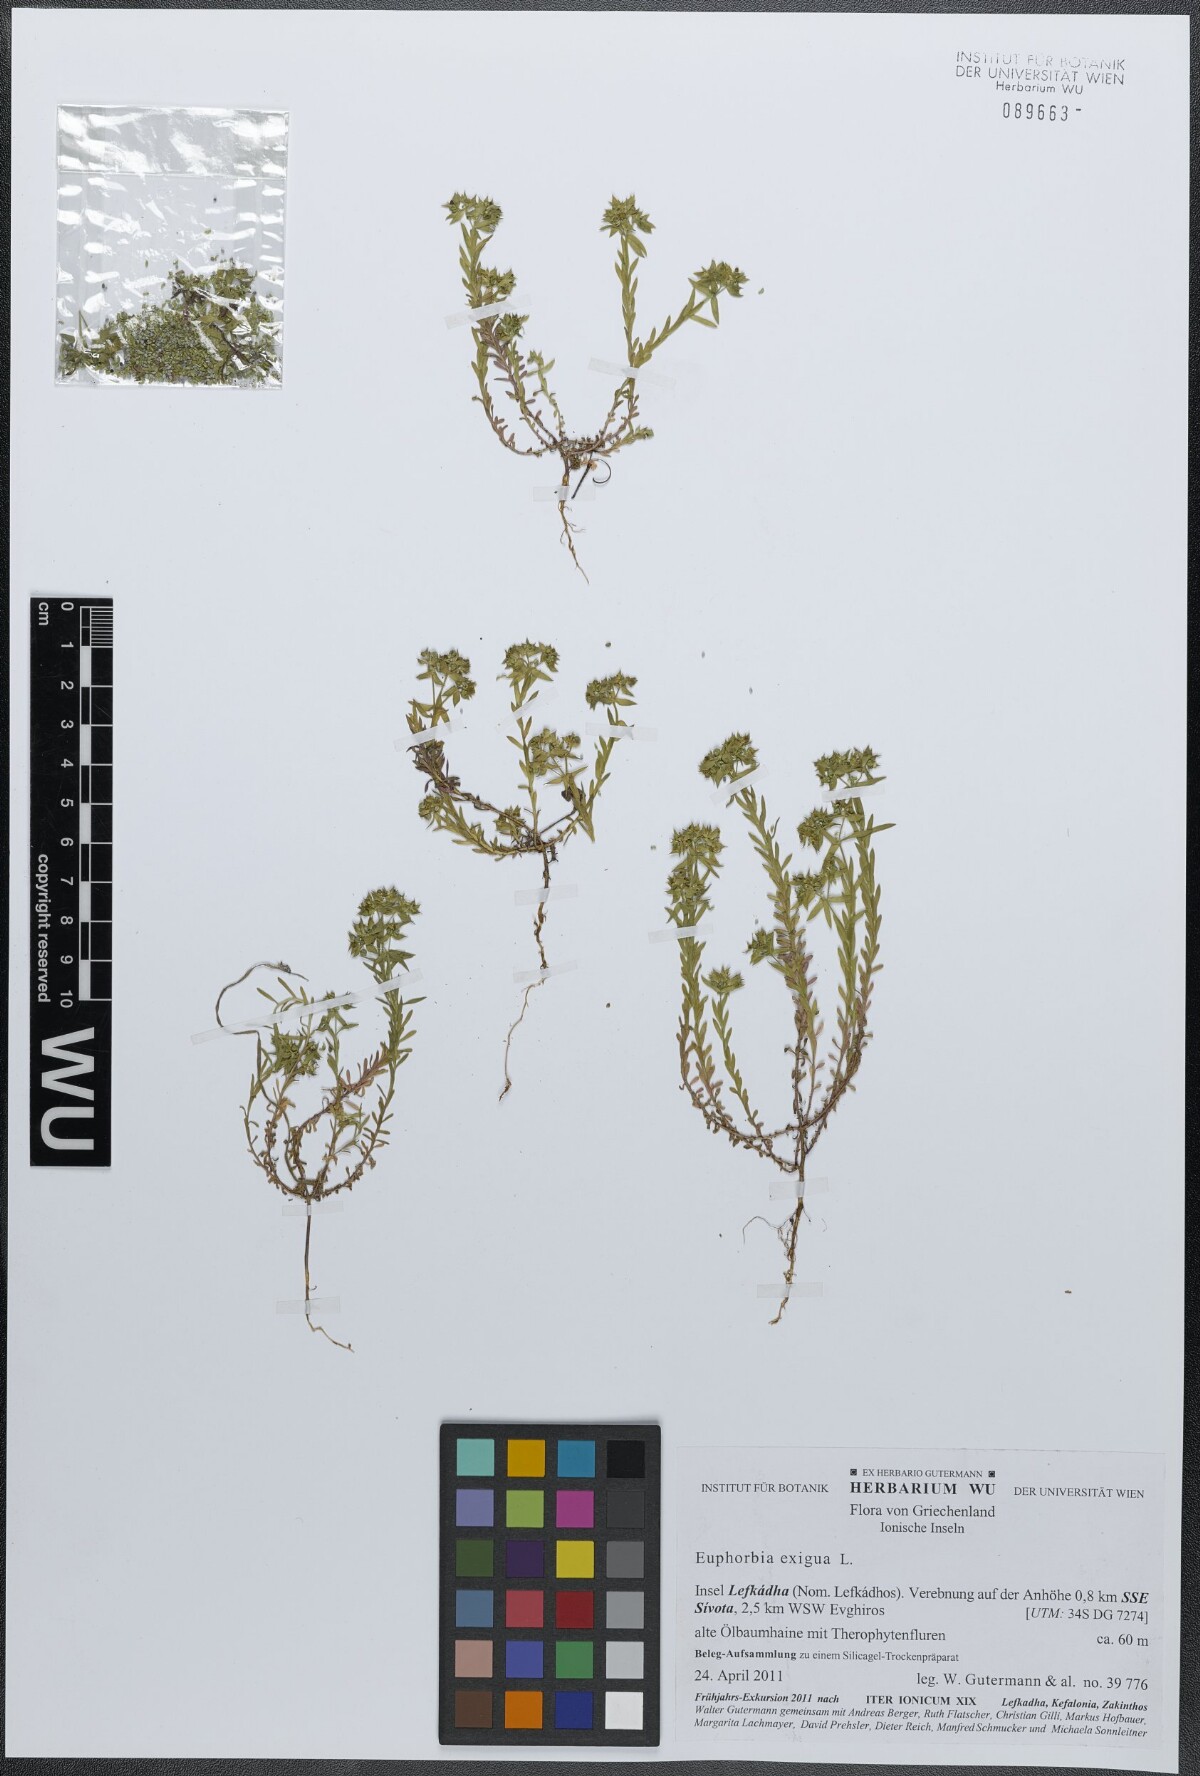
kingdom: Plantae
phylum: Tracheophyta
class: Magnoliopsida
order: Malpighiales
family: Euphorbiaceae
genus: Euphorbia
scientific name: Euphorbia exigua
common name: Dwarf spurge
